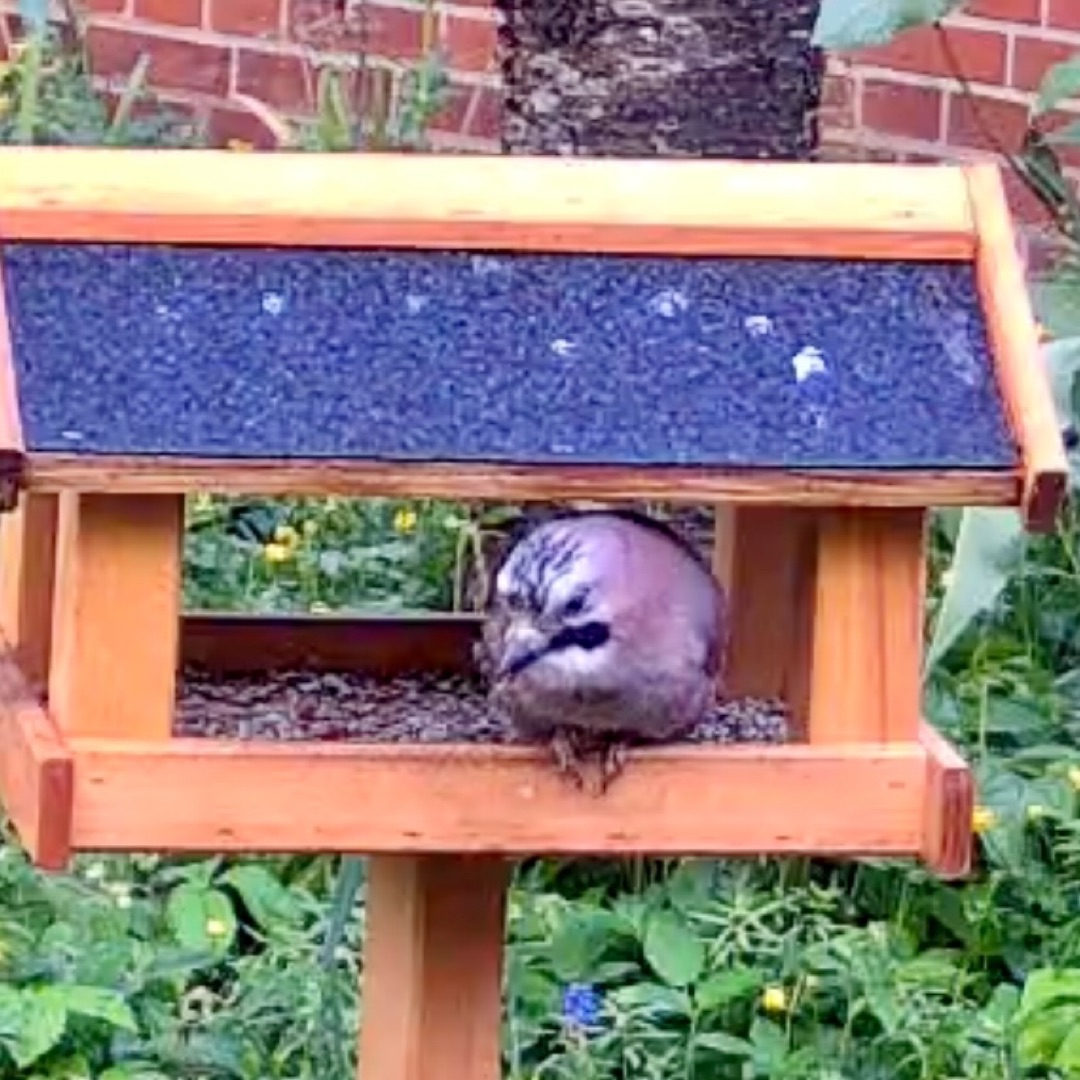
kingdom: Animalia
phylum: Chordata
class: Aves
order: Passeriformes
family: Corvidae
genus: Garrulus
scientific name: Garrulus glandarius
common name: Skovskade
